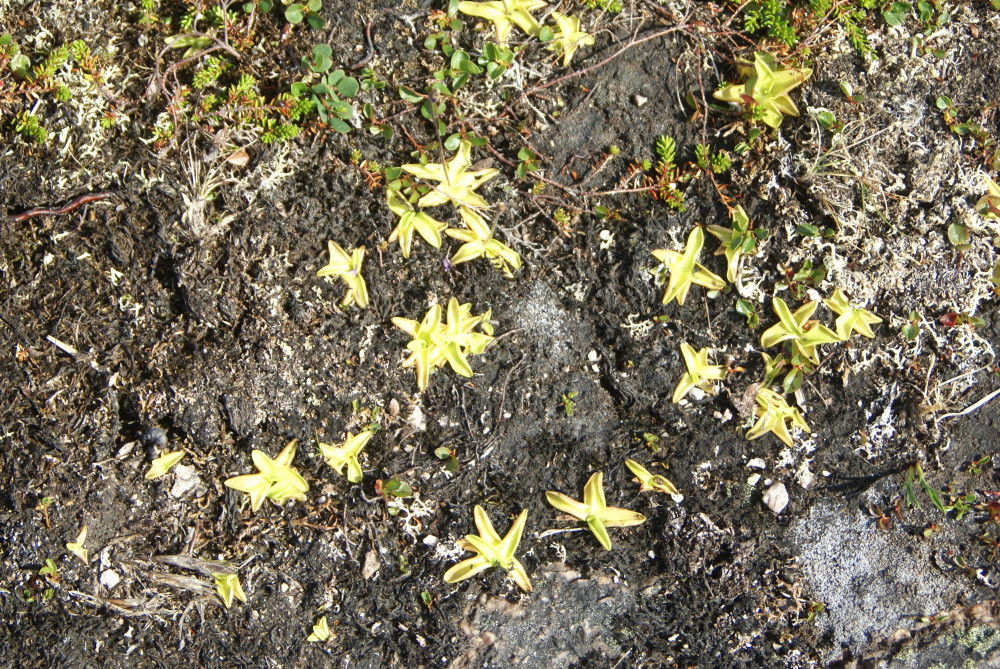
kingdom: Plantae
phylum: Tracheophyta
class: Magnoliopsida
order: Lamiales
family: Lentibulariaceae
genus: Pinguicula
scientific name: Pinguicula
